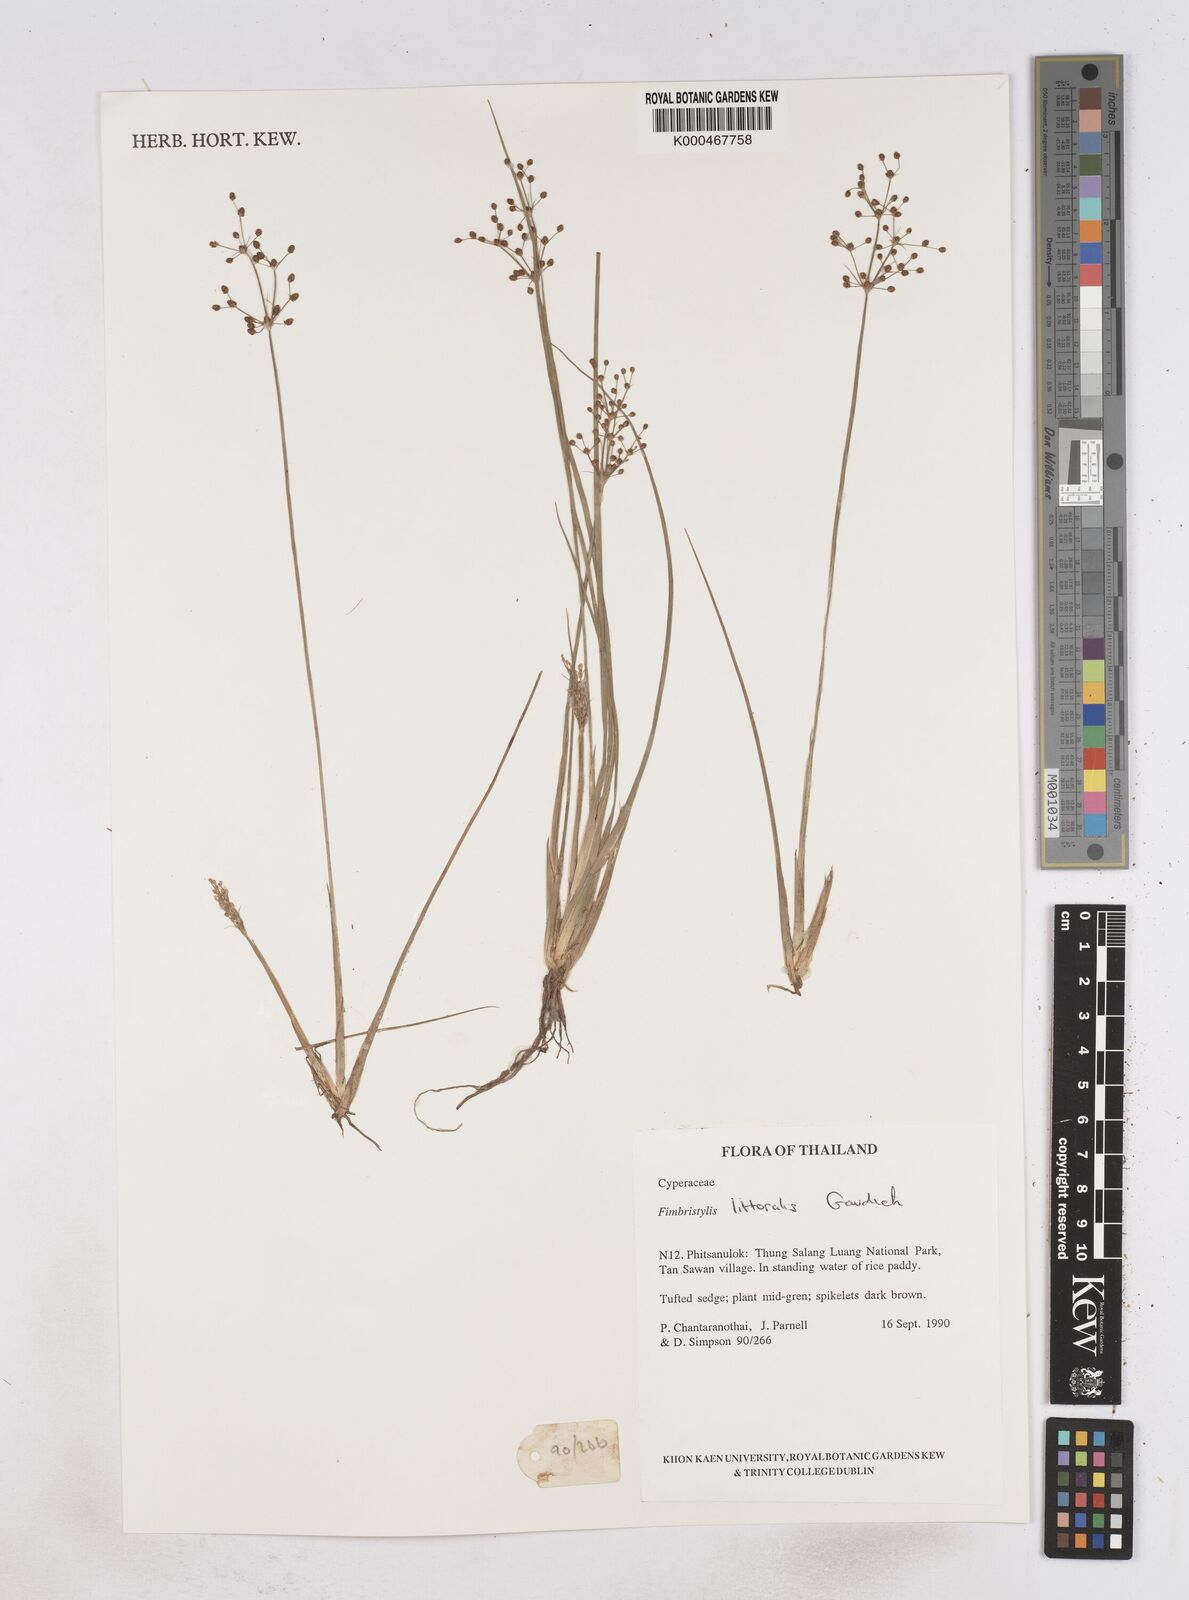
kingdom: Plantae
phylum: Tracheophyta
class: Liliopsida
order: Poales
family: Cyperaceae
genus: Fimbristylis
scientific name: Fimbristylis quinquangularis
